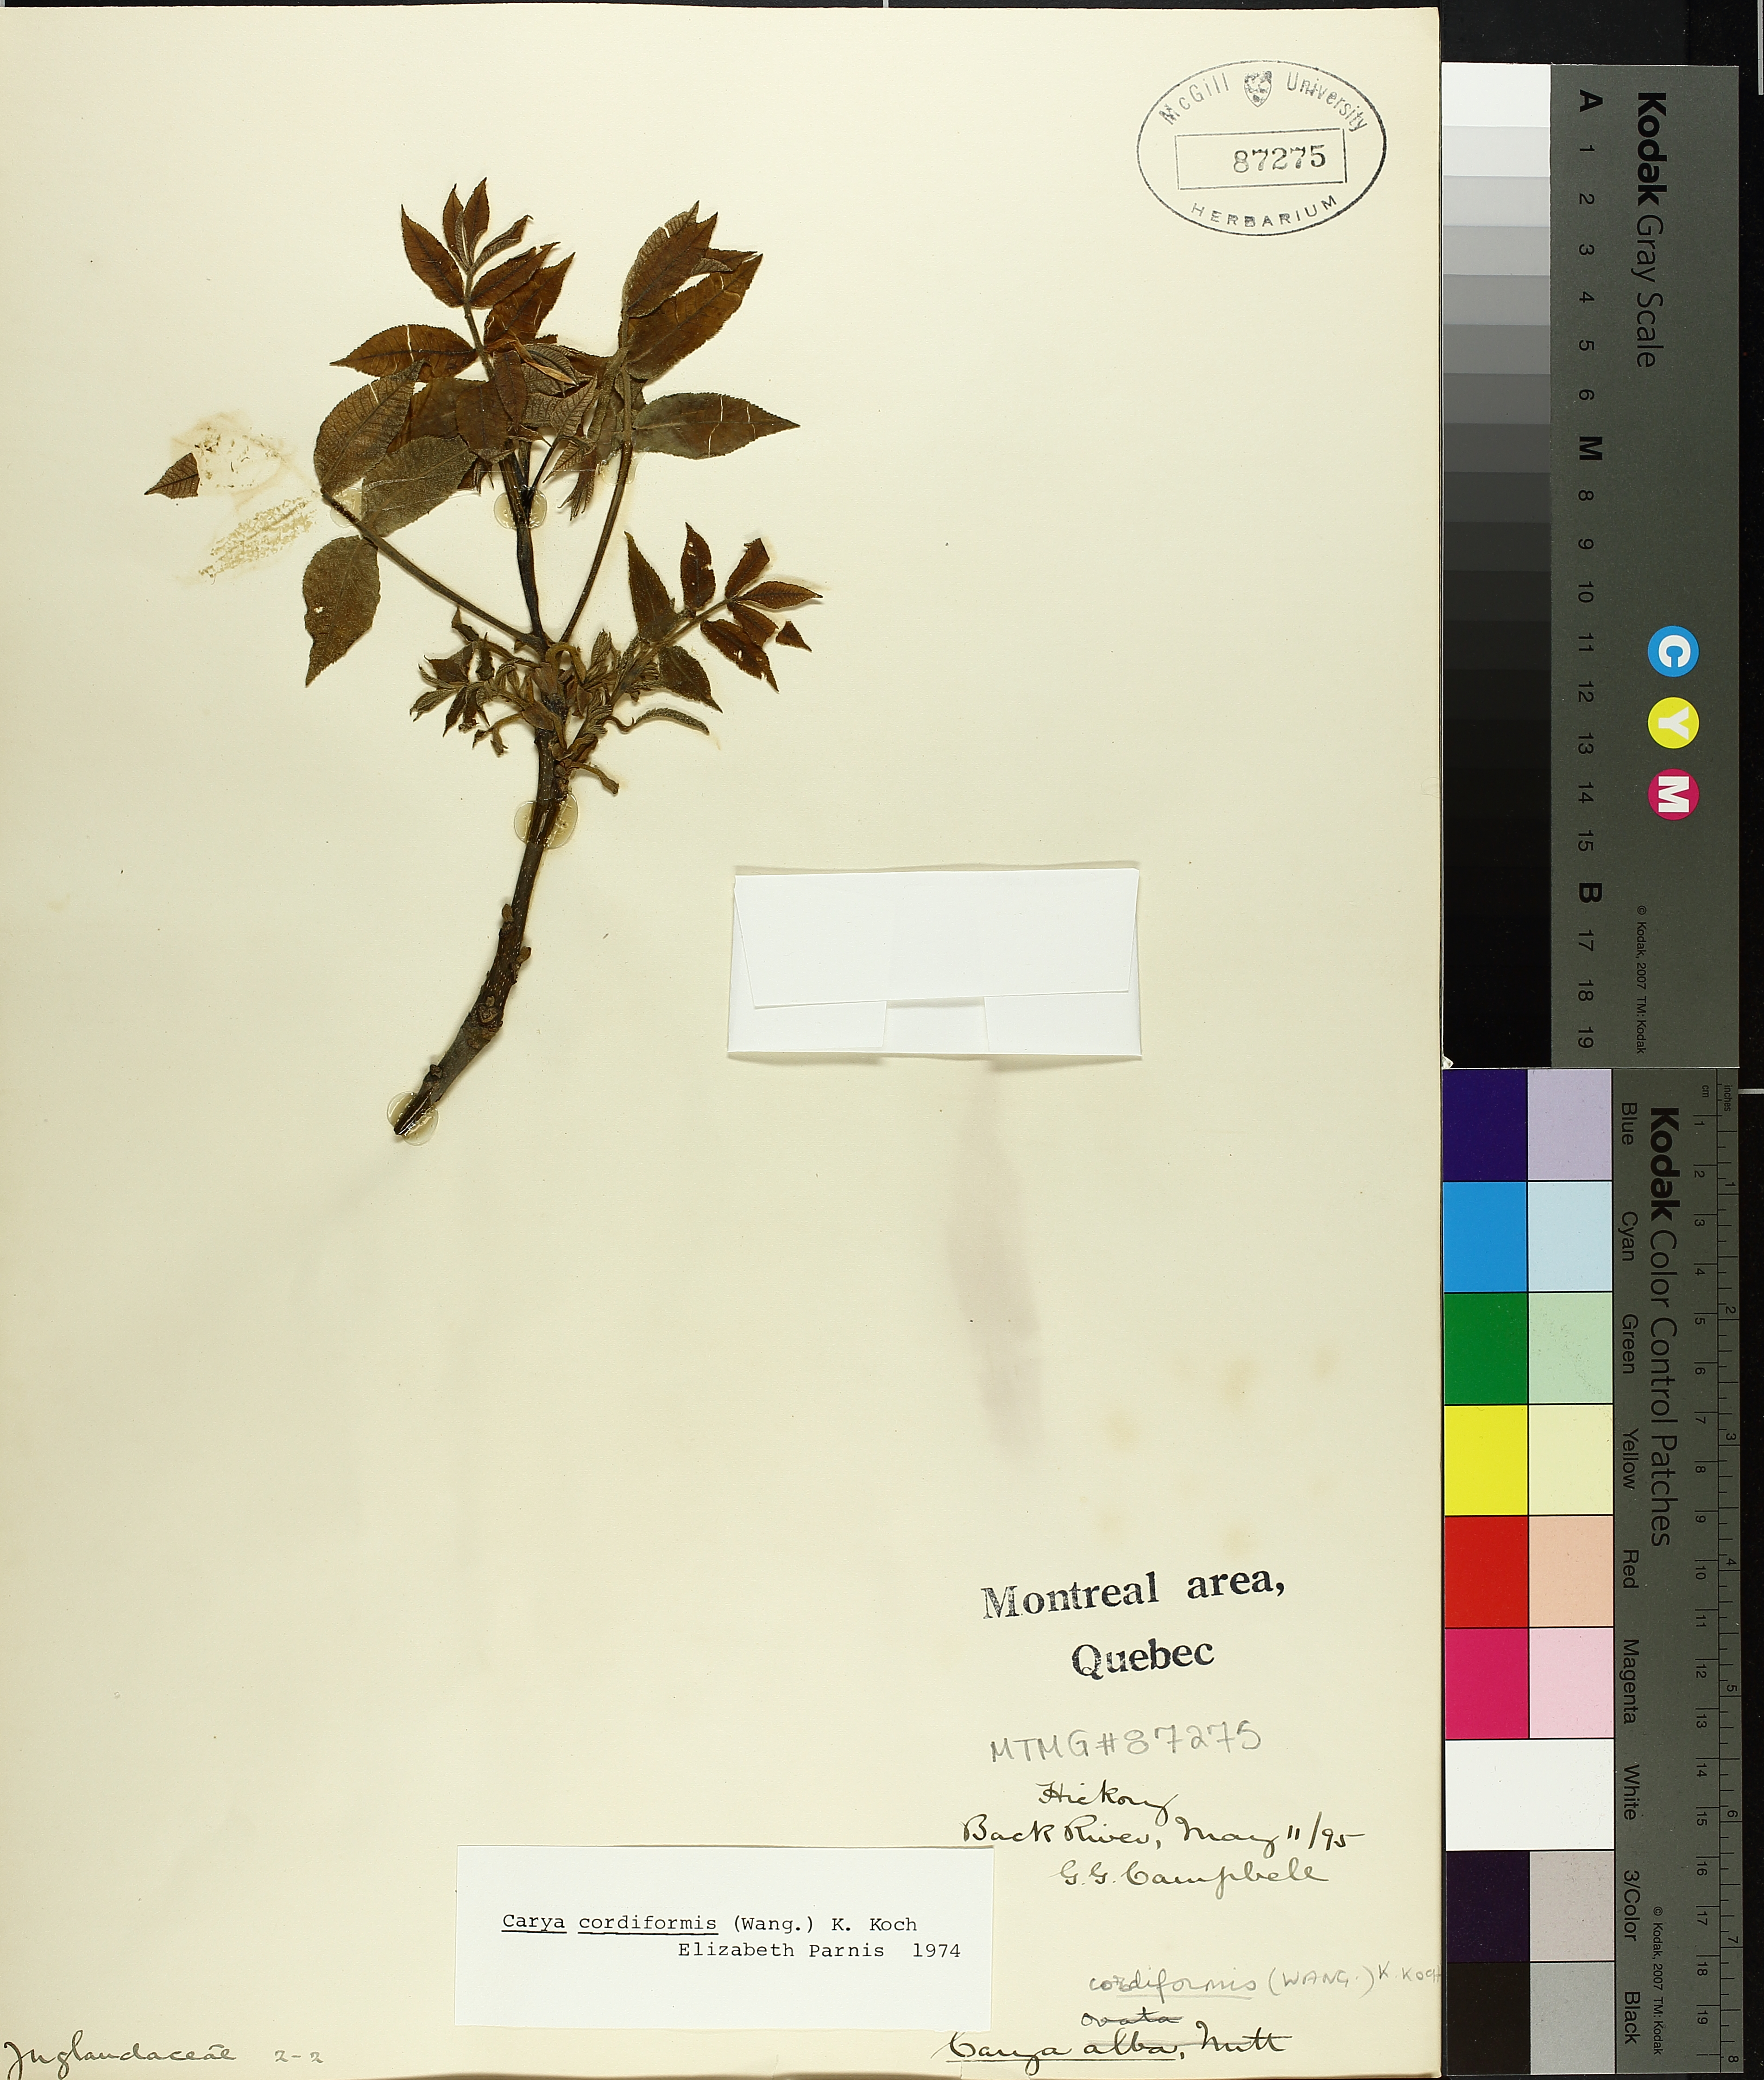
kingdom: Plantae
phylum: Tracheophyta
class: Magnoliopsida
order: Fagales
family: Juglandaceae
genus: Carya
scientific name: Carya cordiformis
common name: Bitternut hickory
